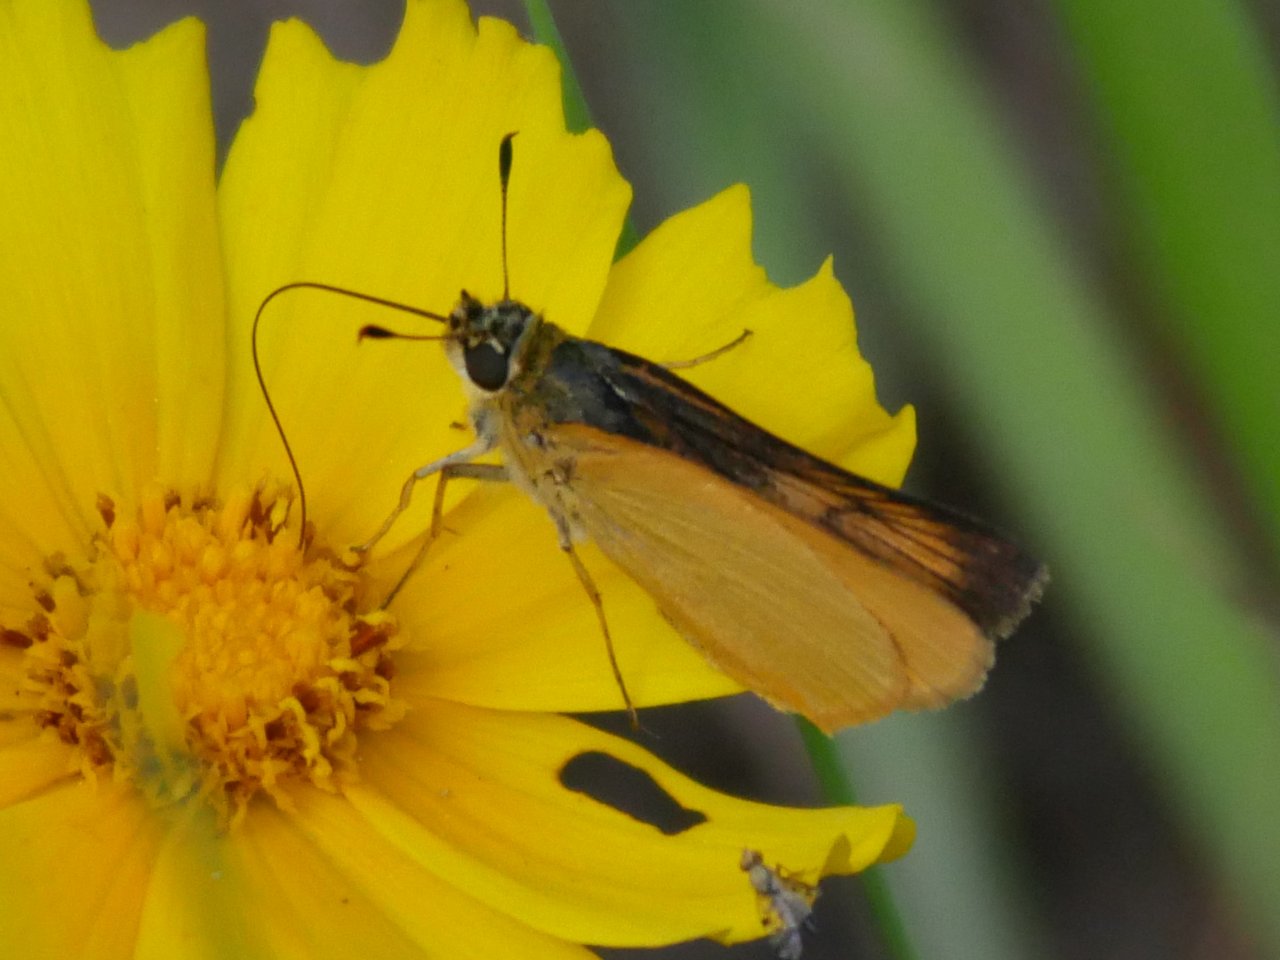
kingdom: Animalia
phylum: Arthropoda
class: Insecta
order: Lepidoptera
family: Hesperiidae
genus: Atrytone
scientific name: Atrytone delaware
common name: Delaware Skipper
